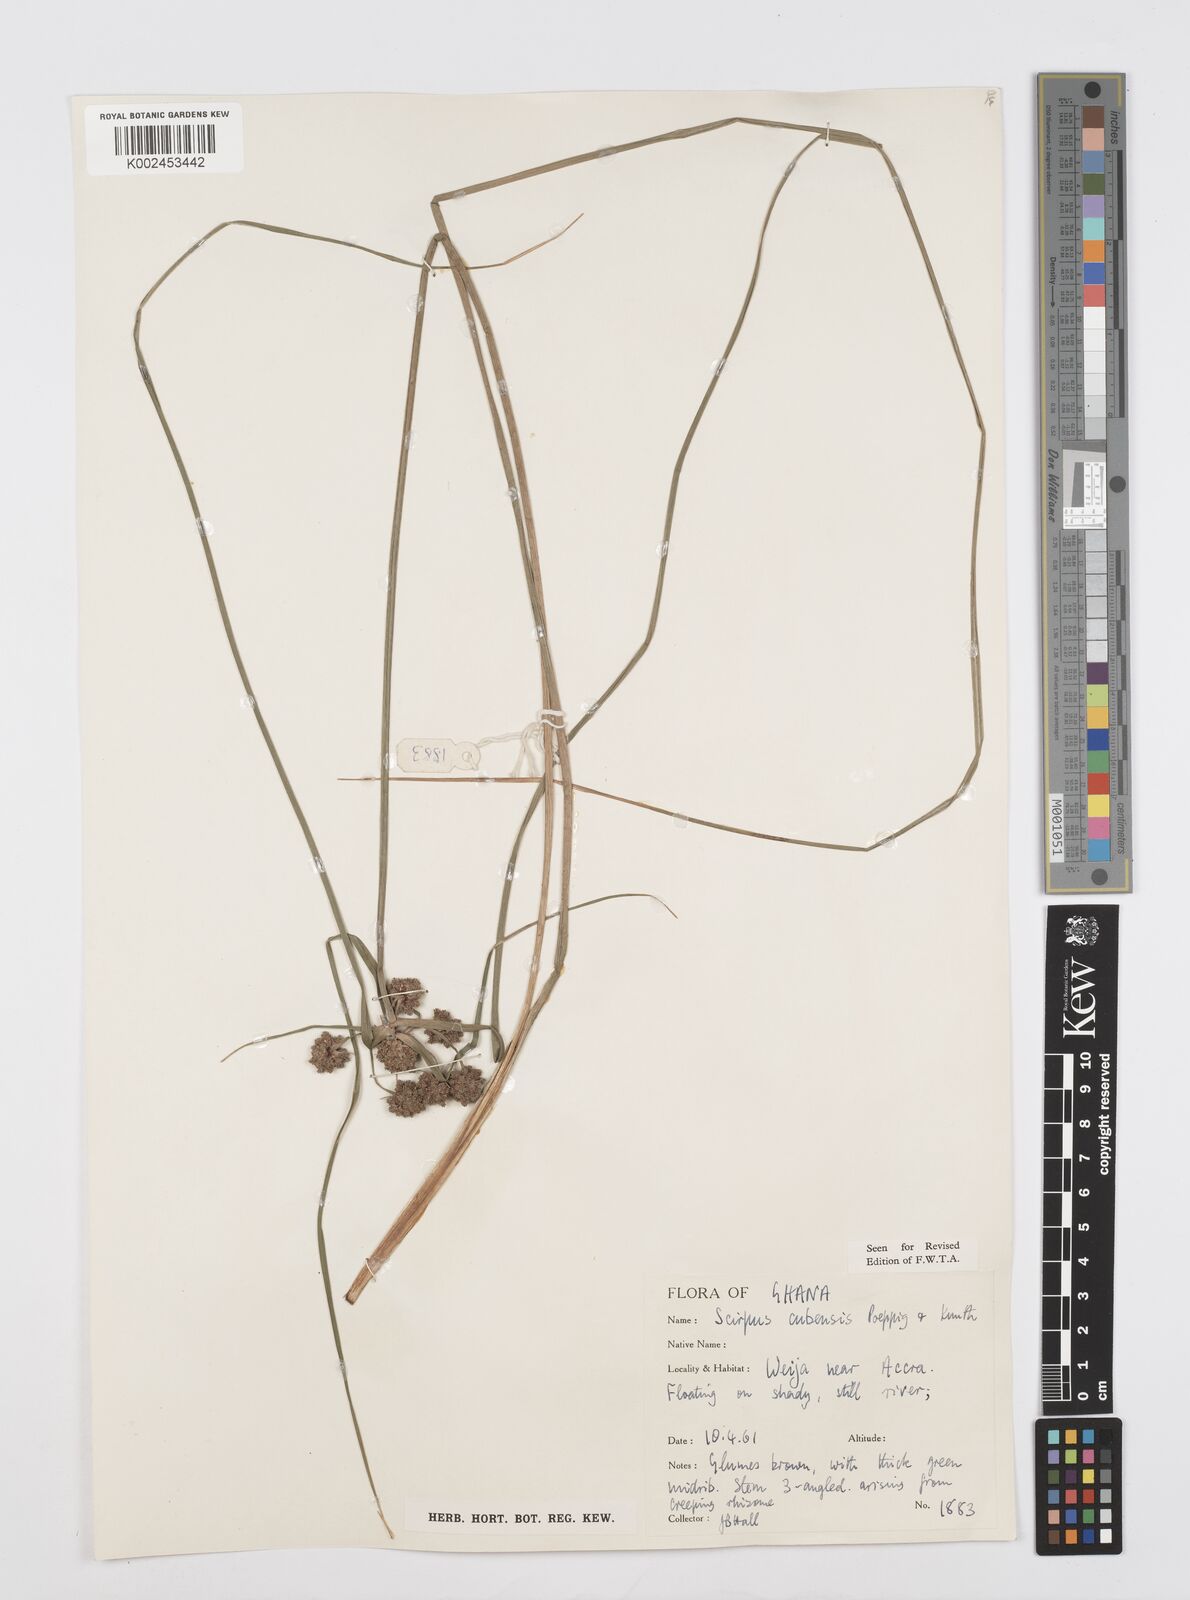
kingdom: Plantae
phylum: Tracheophyta
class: Liliopsida
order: Poales
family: Cyperaceae
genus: Cyperus
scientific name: Cyperus elegans
